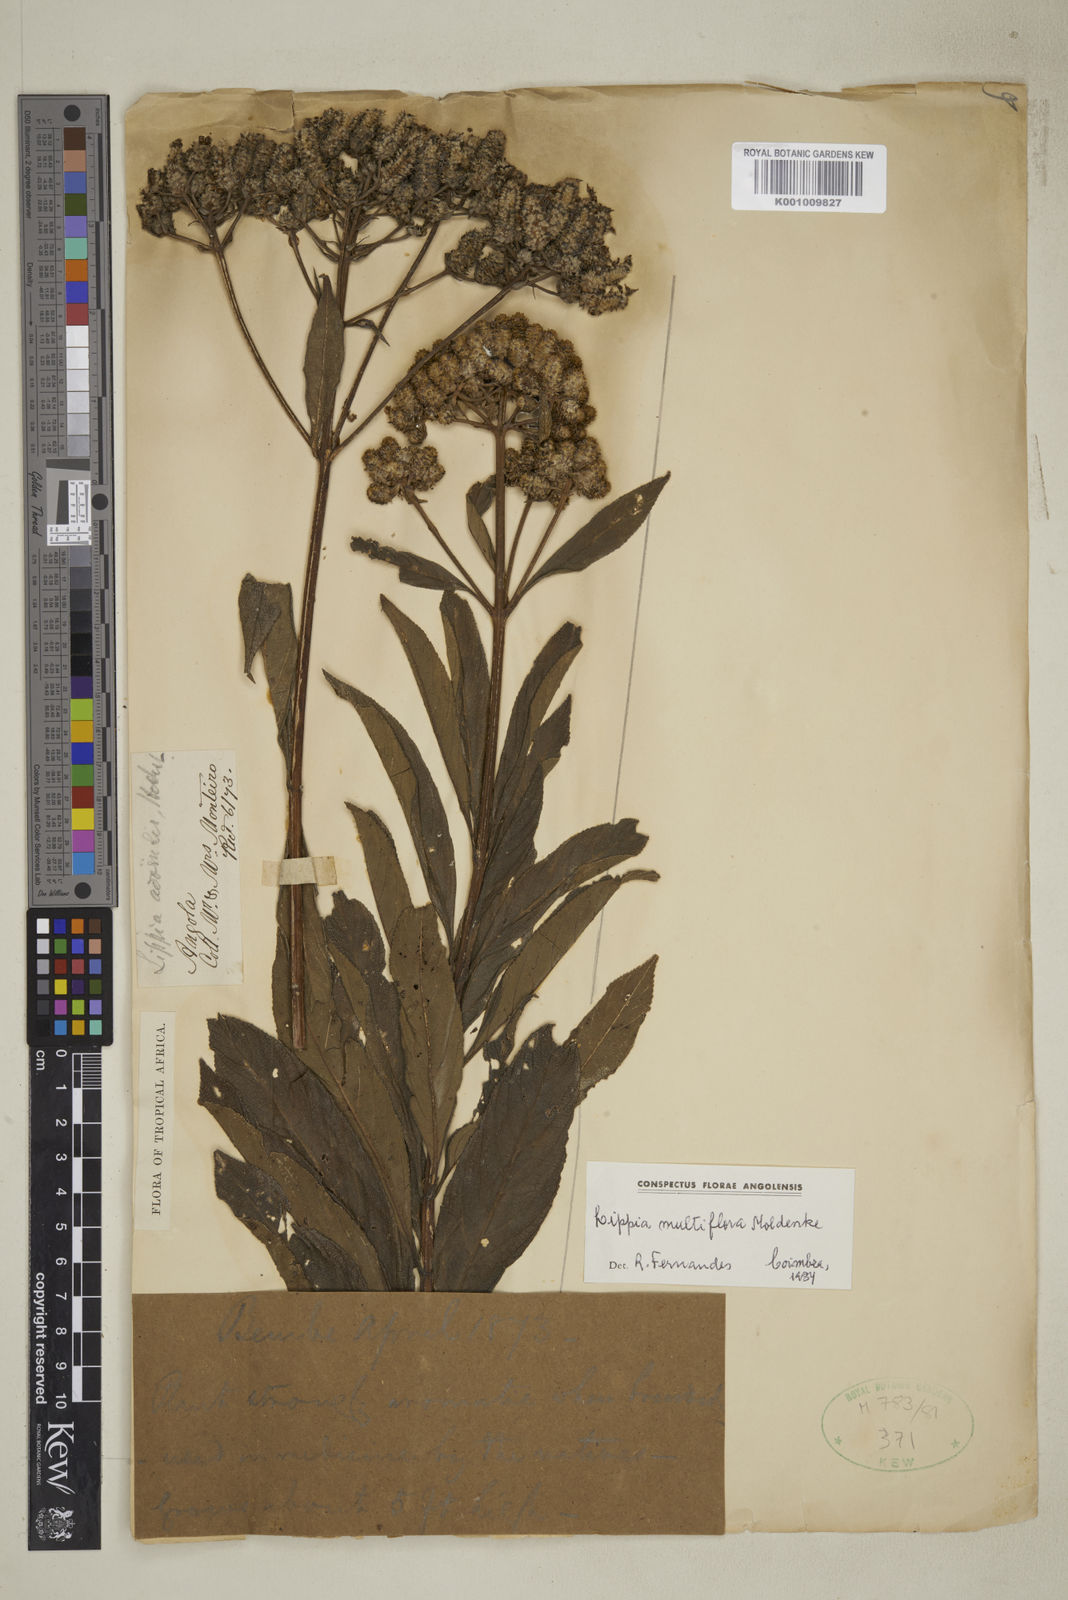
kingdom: Plantae
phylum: Tracheophyta
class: Magnoliopsida
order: Lamiales
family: Verbenaceae
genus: Lippia
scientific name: Lippia multiflora
